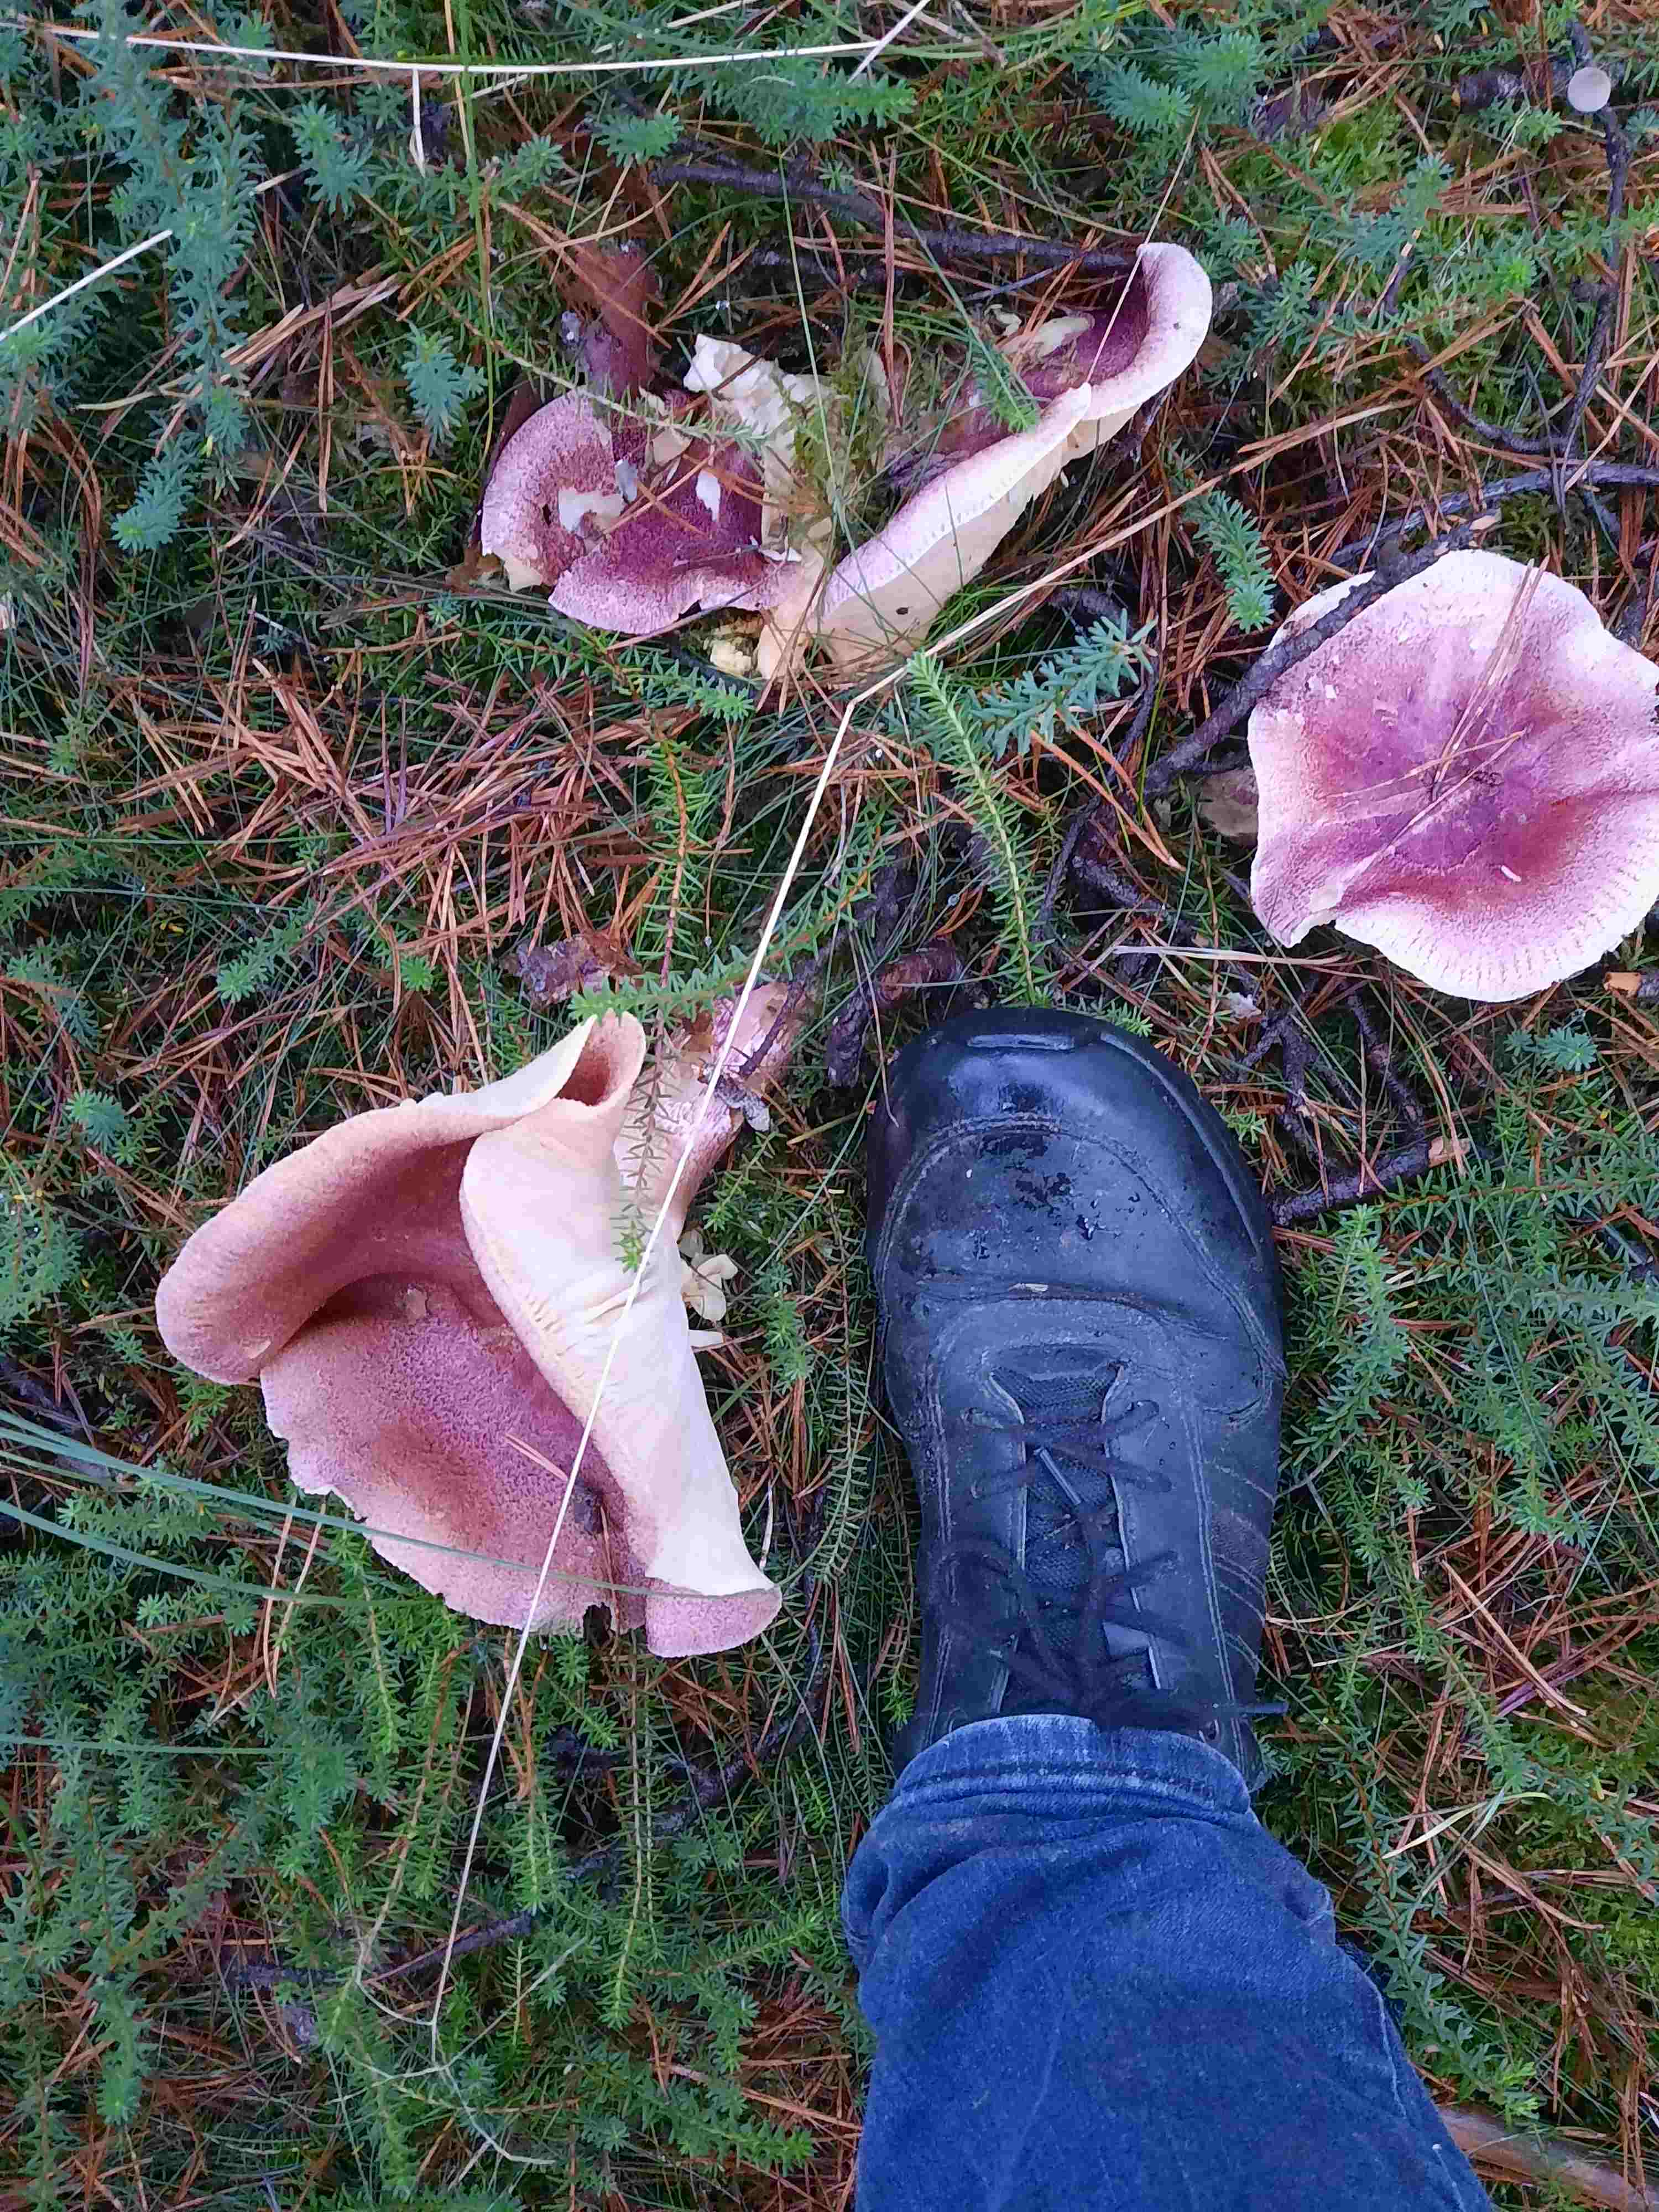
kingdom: Fungi
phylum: Basidiomycota
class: Agaricomycetes
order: Agaricales
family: Tricholomataceae
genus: Tricholomopsis
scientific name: Tricholomopsis rutilans
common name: purpur-væbnerhat
